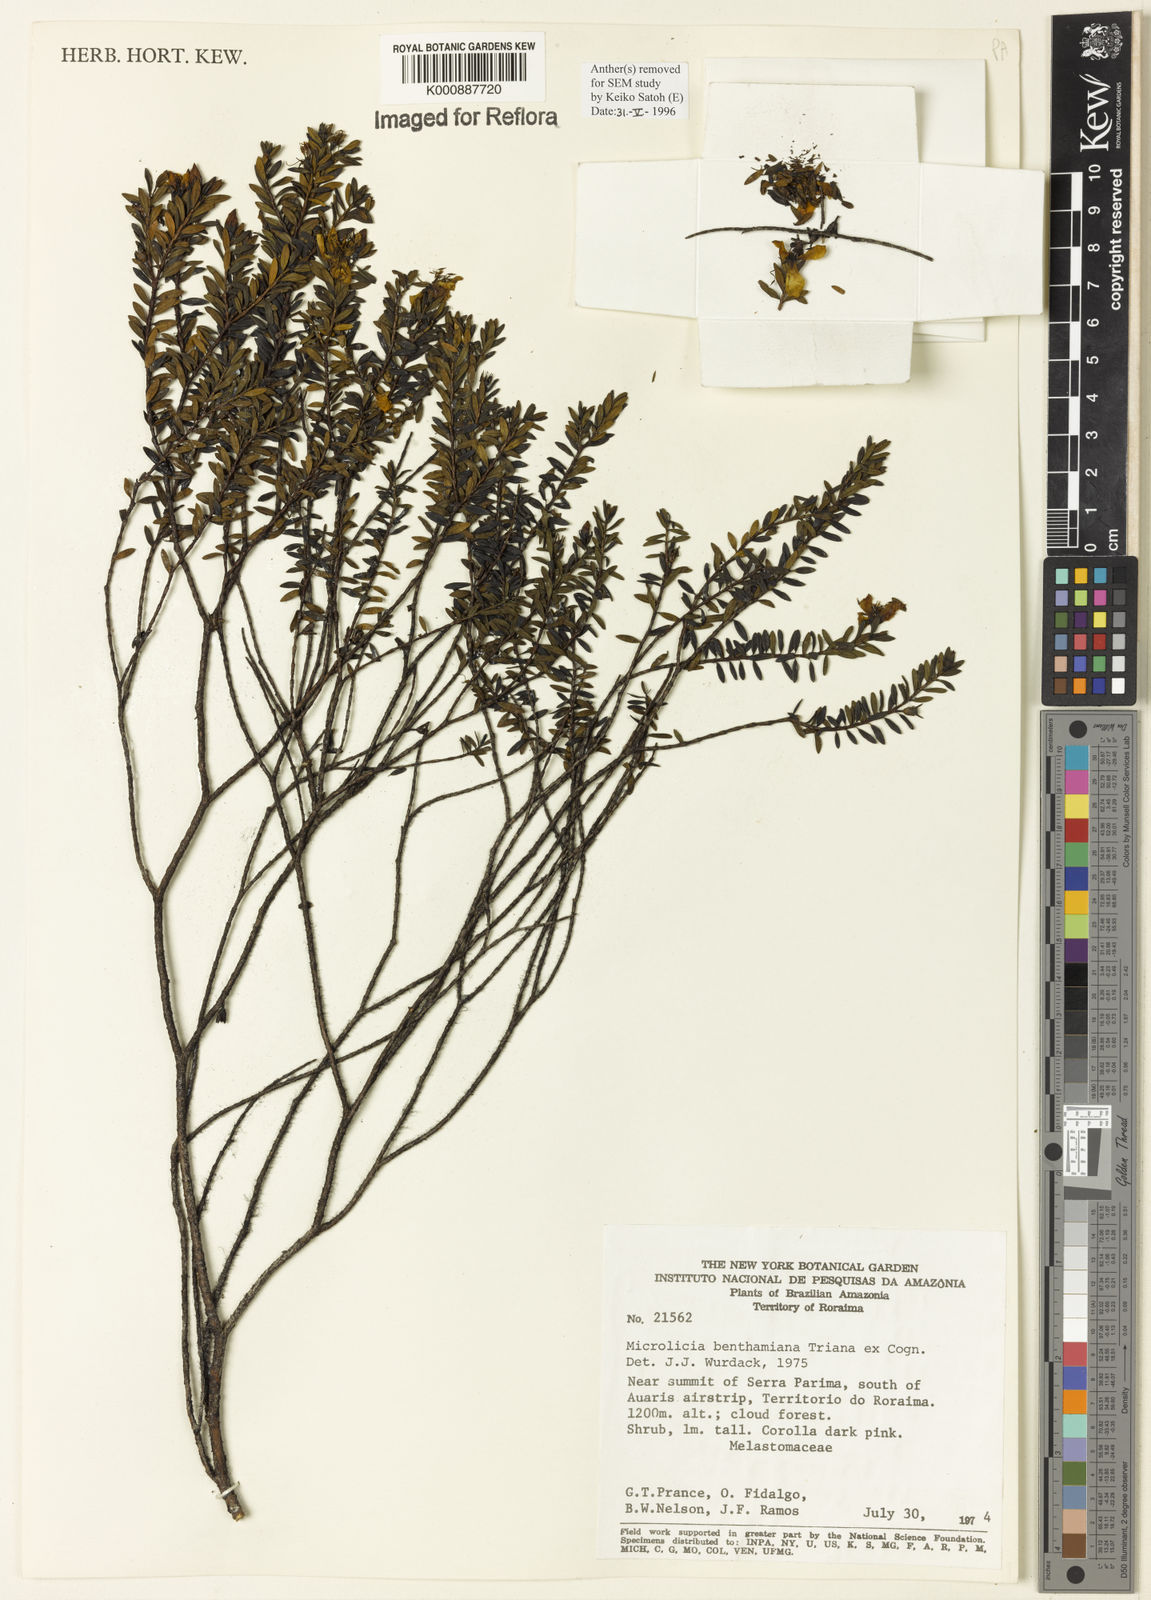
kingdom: Plantae
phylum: Tracheophyta
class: Magnoliopsida
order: Myrtales
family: Melastomataceae
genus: Microlicia
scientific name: Microlicia benthamiana
